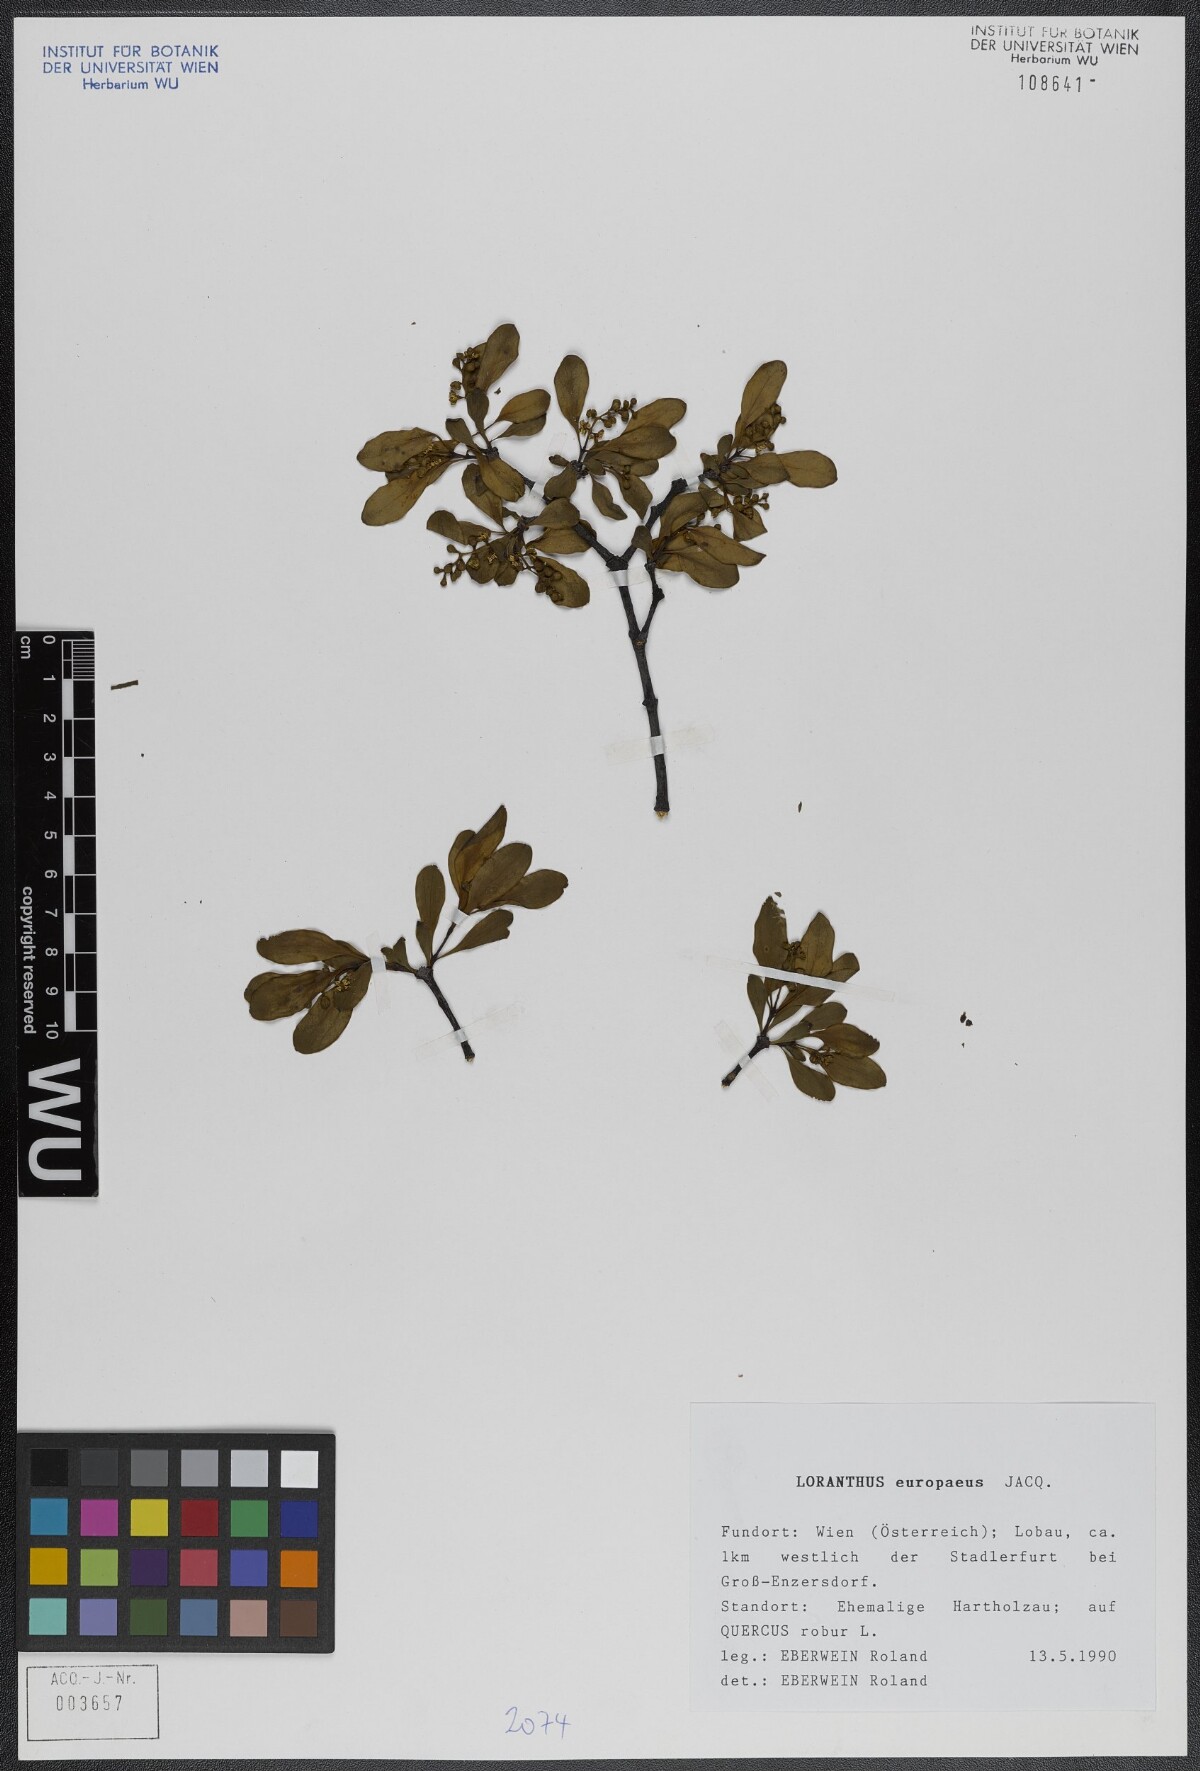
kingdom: Plantae
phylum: Tracheophyta
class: Magnoliopsida
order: Santalales
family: Loranthaceae
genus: Loranthus
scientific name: Loranthus europaeus
